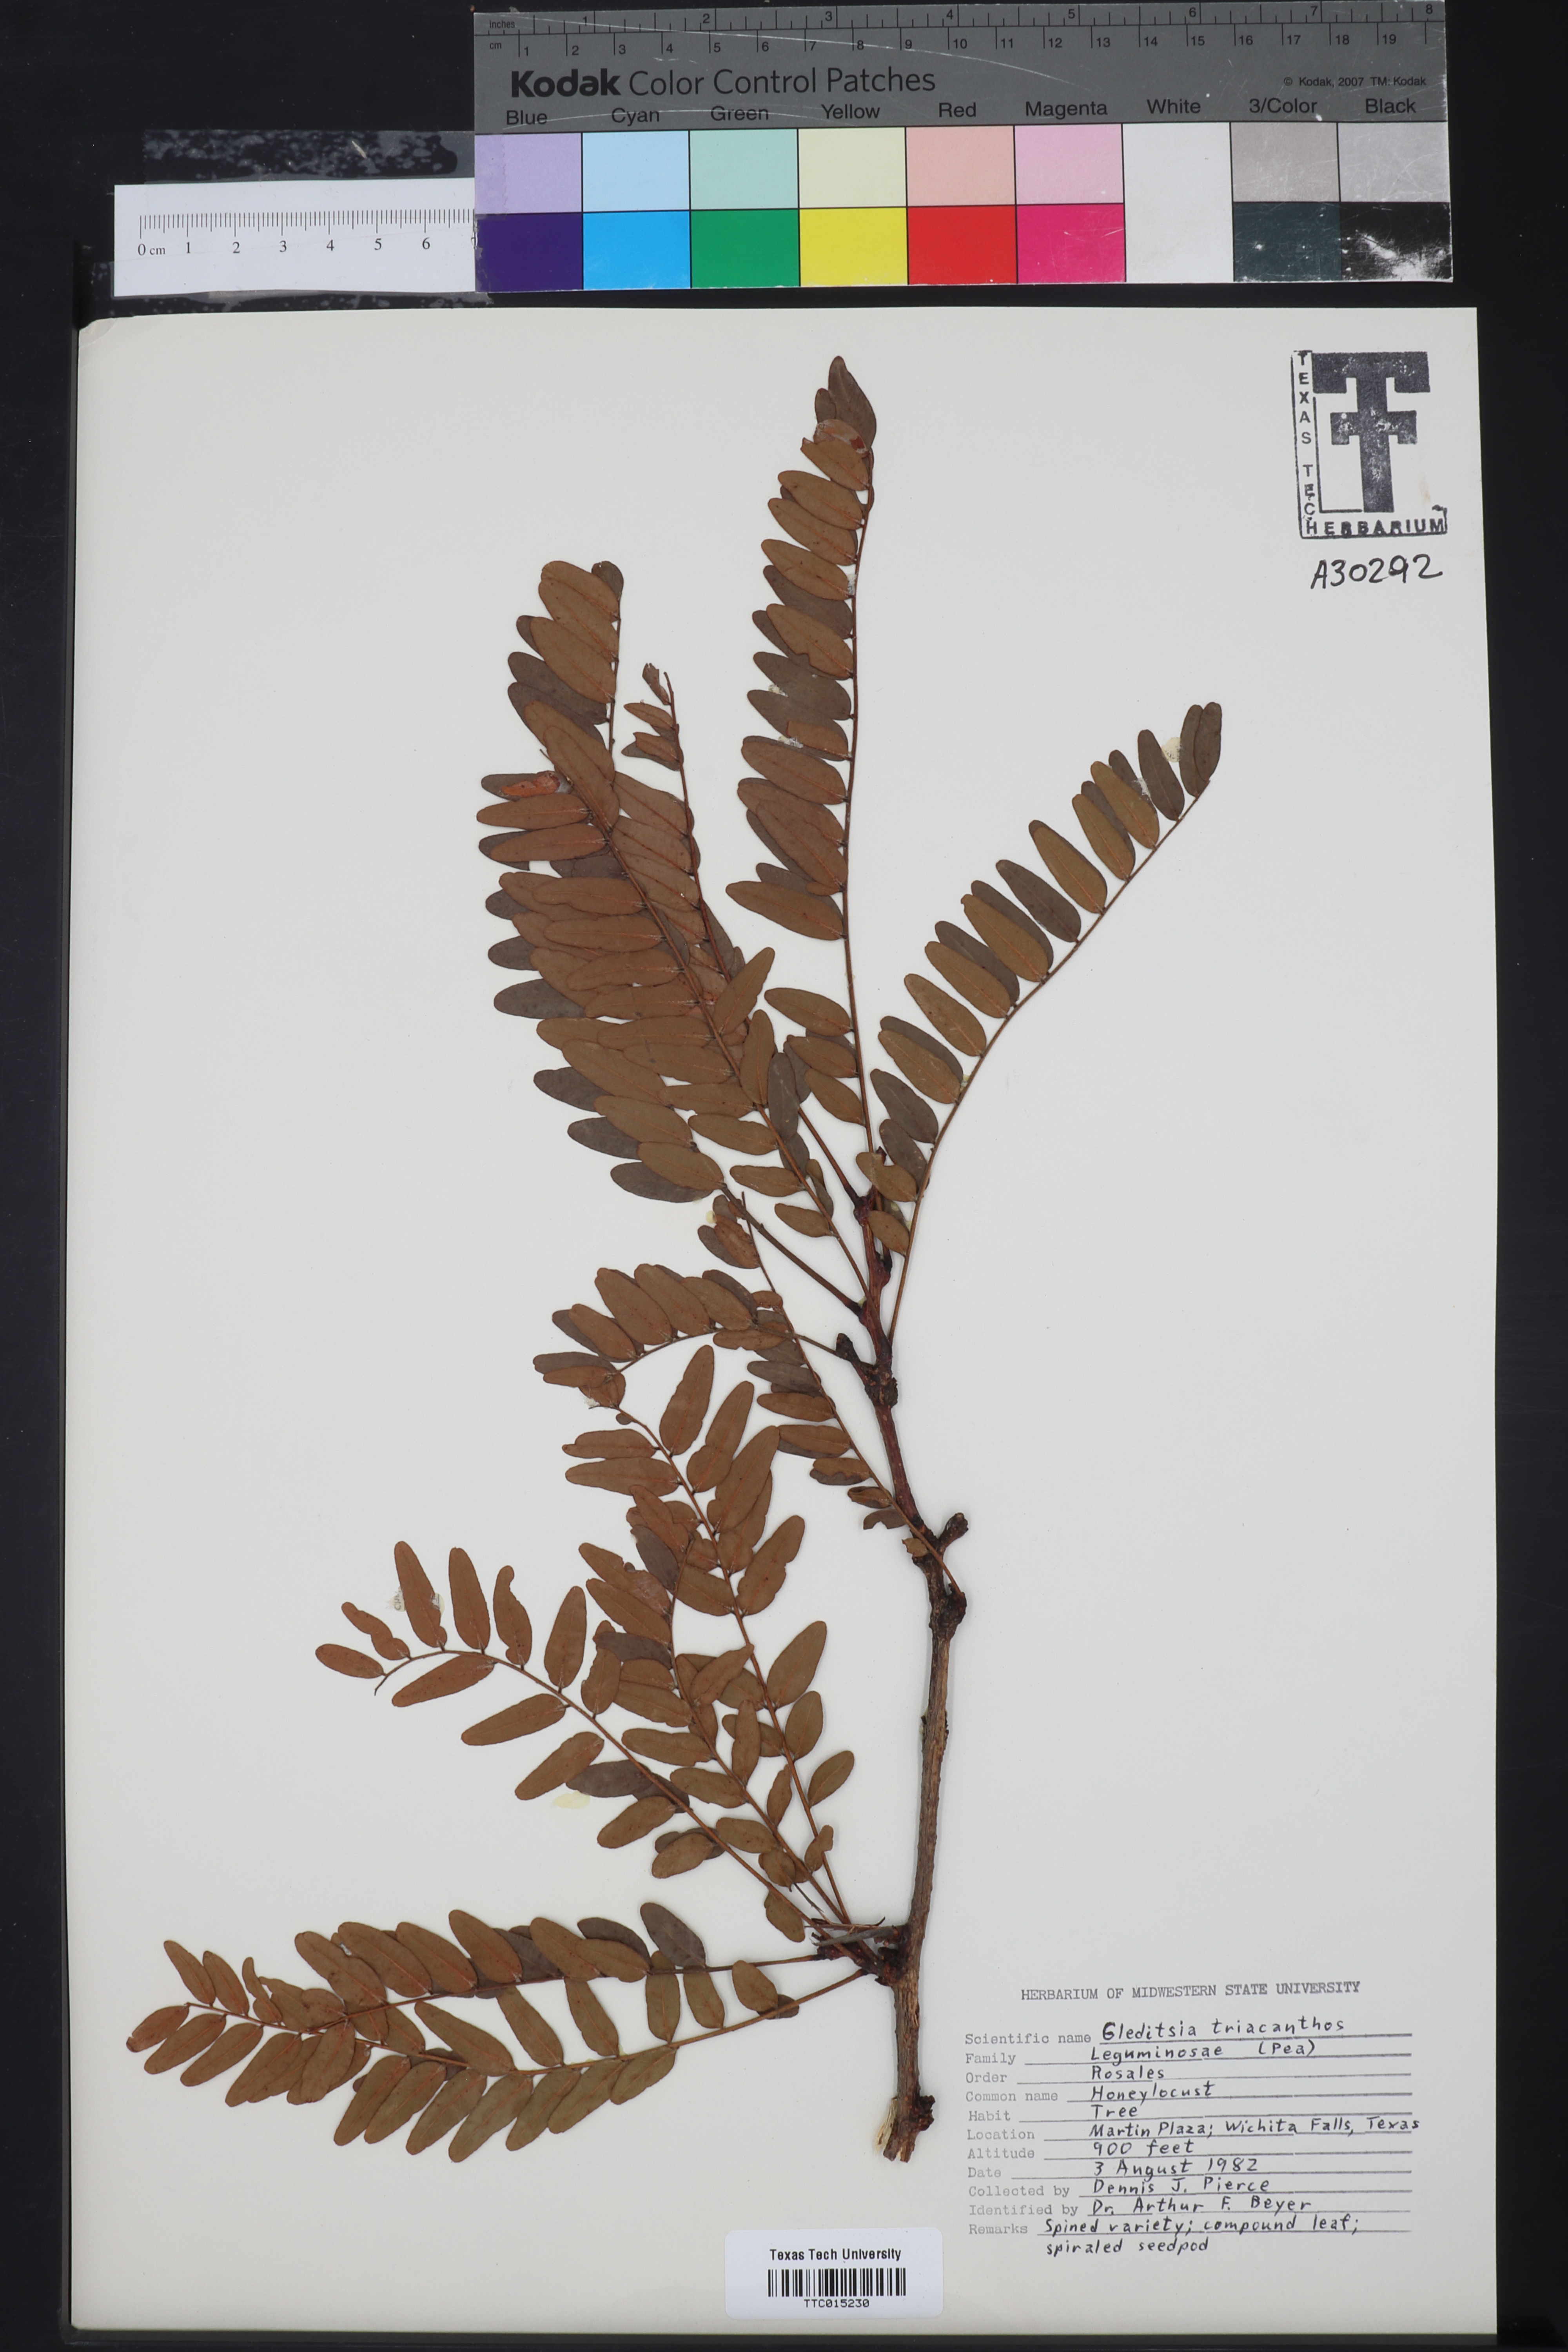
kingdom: Plantae
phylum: Tracheophyta
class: Magnoliopsida
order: Fabales
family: Fabaceae
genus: Gleditsia
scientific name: Gleditsia triacanthos
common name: Common honeylocust
